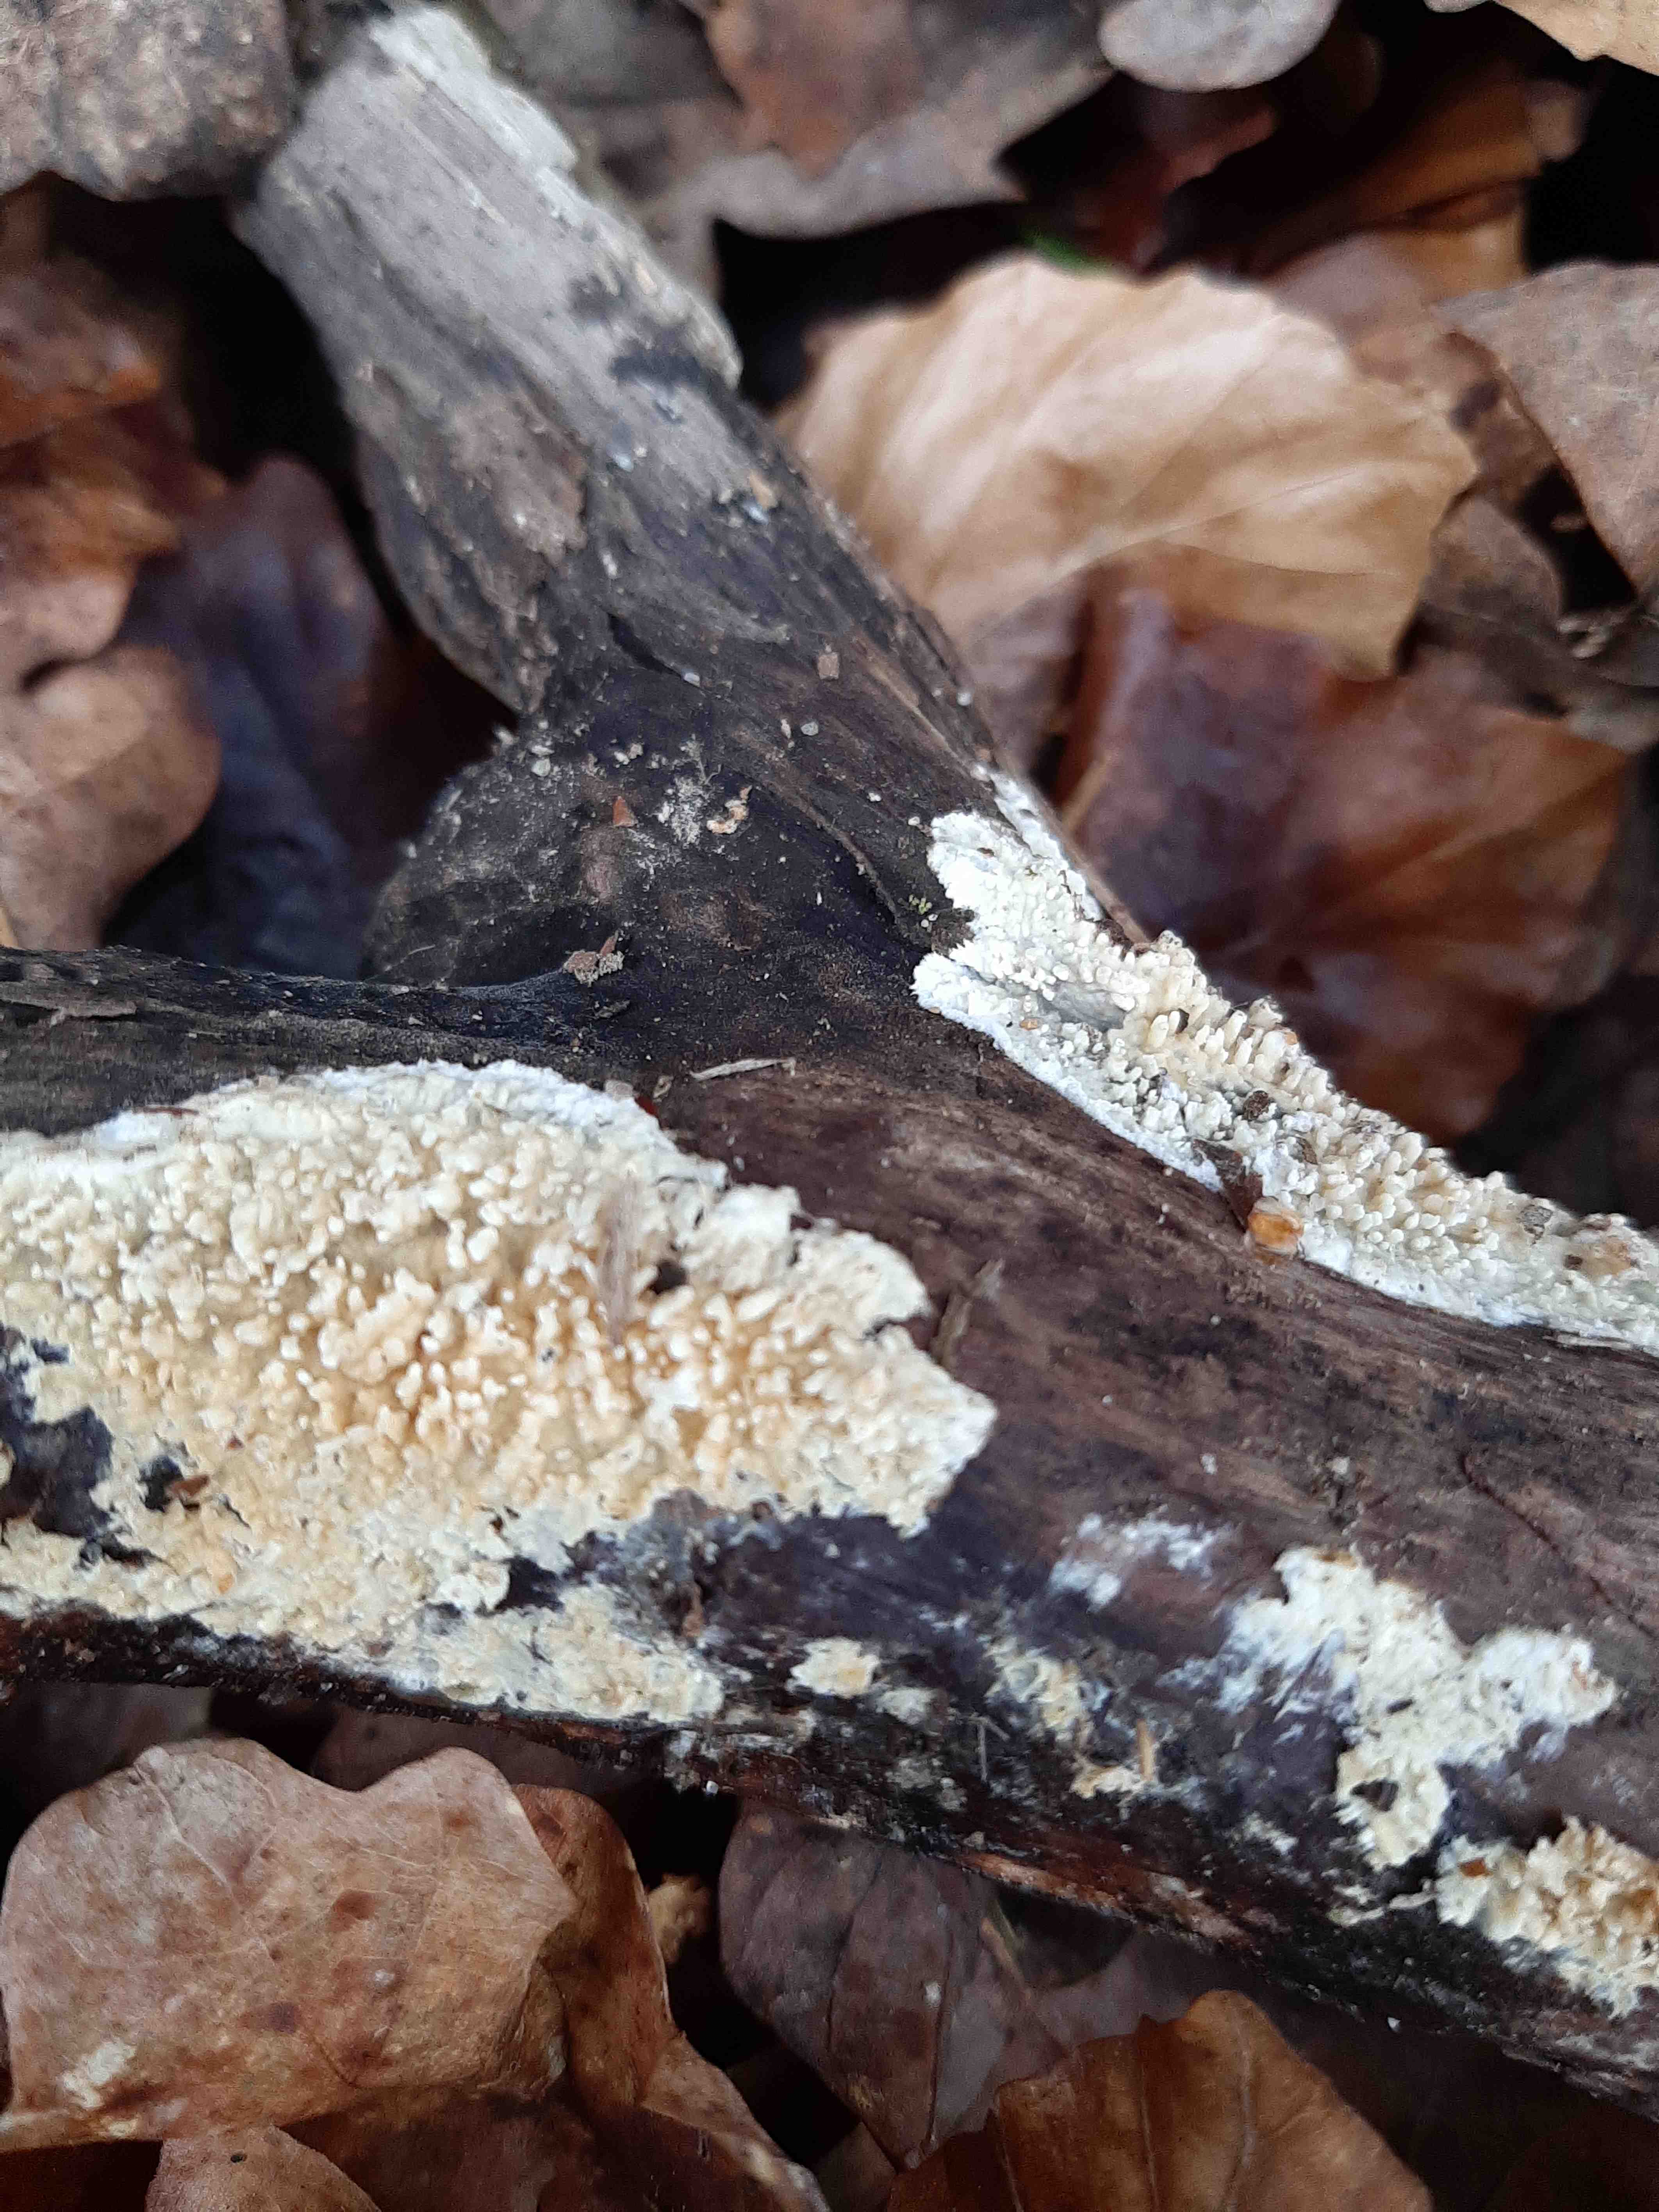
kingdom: Fungi
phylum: Basidiomycota
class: Agaricomycetes
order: Hymenochaetales
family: Schizoporaceae
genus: Xylodon
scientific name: Xylodon radula
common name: grovtandet kalkskind
